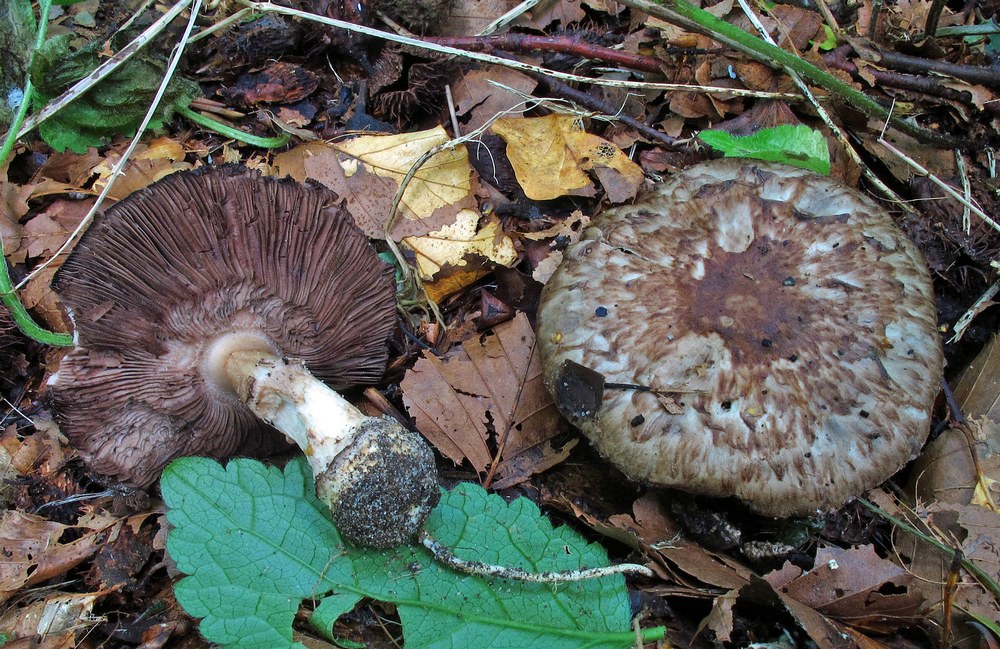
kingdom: Fungi
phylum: Basidiomycota
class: Agaricomycetes
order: Agaricales
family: Agaricaceae
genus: Agaricus
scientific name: Agaricus lanipes
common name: uldstokket champignon
